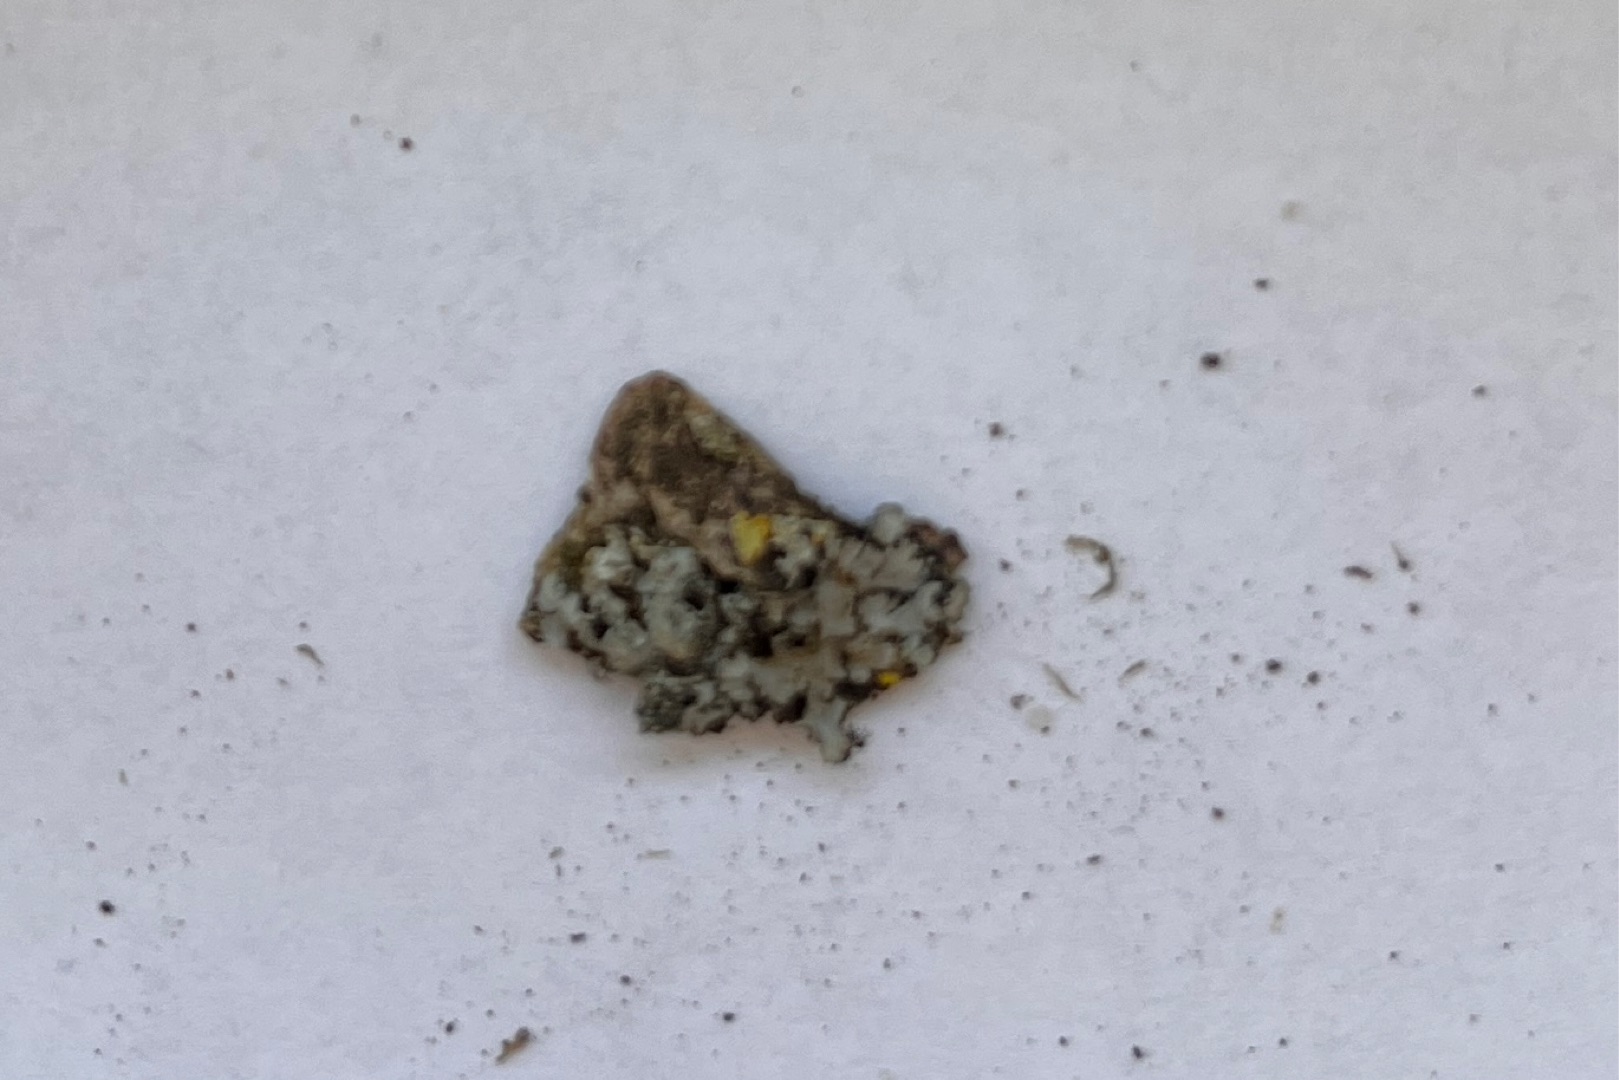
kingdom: Fungi
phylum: Ascomycota
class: Lecanoromycetes
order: Caliciales
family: Physciaceae
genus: Phaeophyscia
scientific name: Phaeophyscia orbicularis
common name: Grågrøn rosetlav
